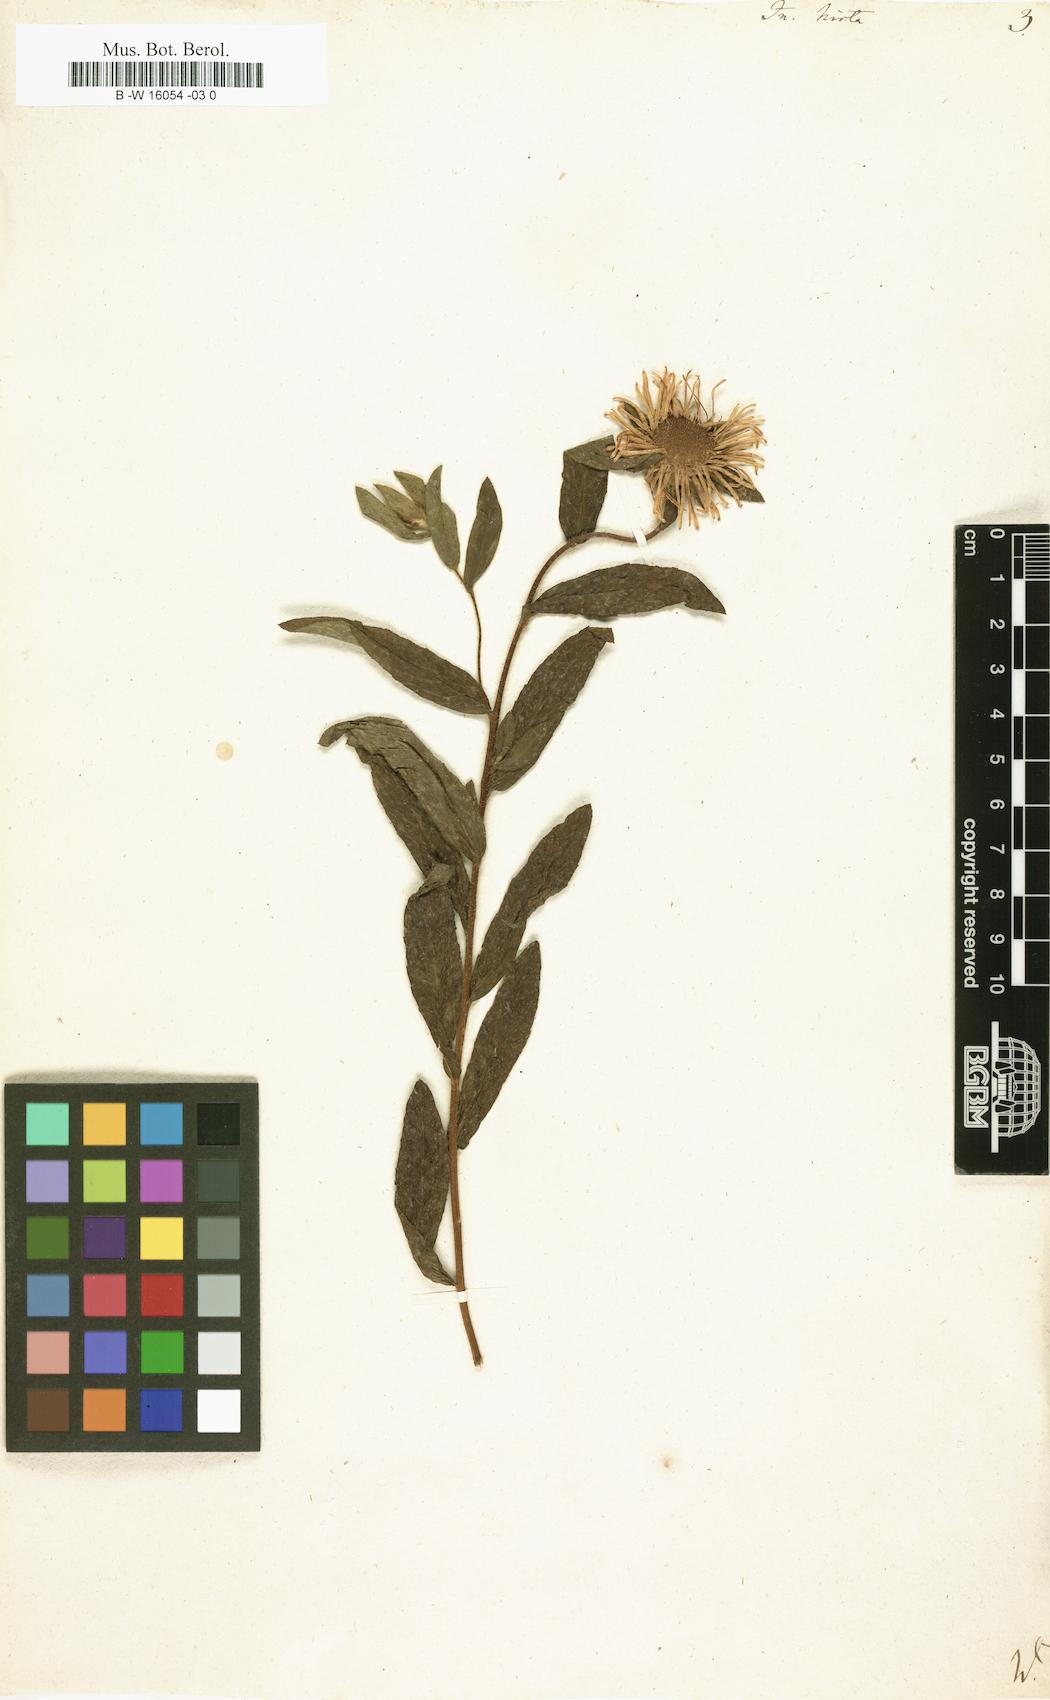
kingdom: Plantae
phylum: Tracheophyta
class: Magnoliopsida
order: Asterales
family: Asteraceae
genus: Pentanema
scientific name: Pentanema hirtum
